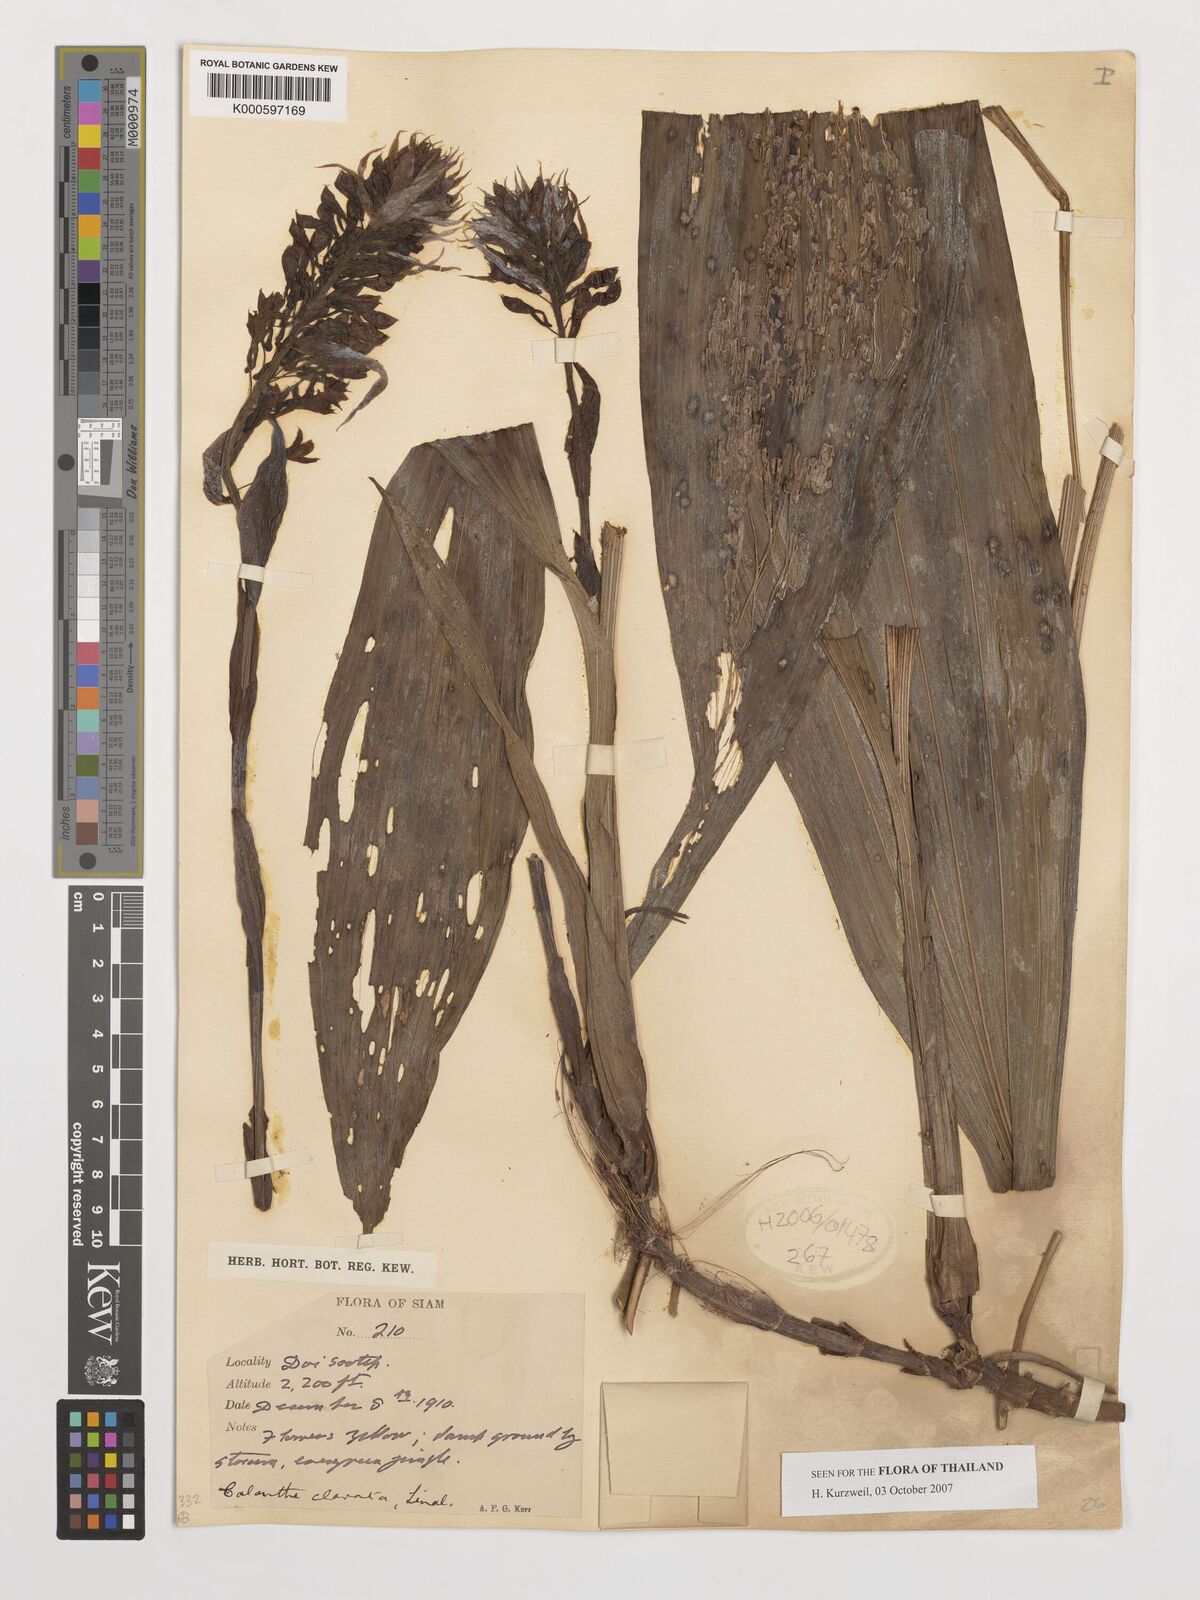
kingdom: Plantae
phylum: Tracheophyta
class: Liliopsida
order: Asparagales
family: Orchidaceae
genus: Calanthe
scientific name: Calanthe ceciliae
